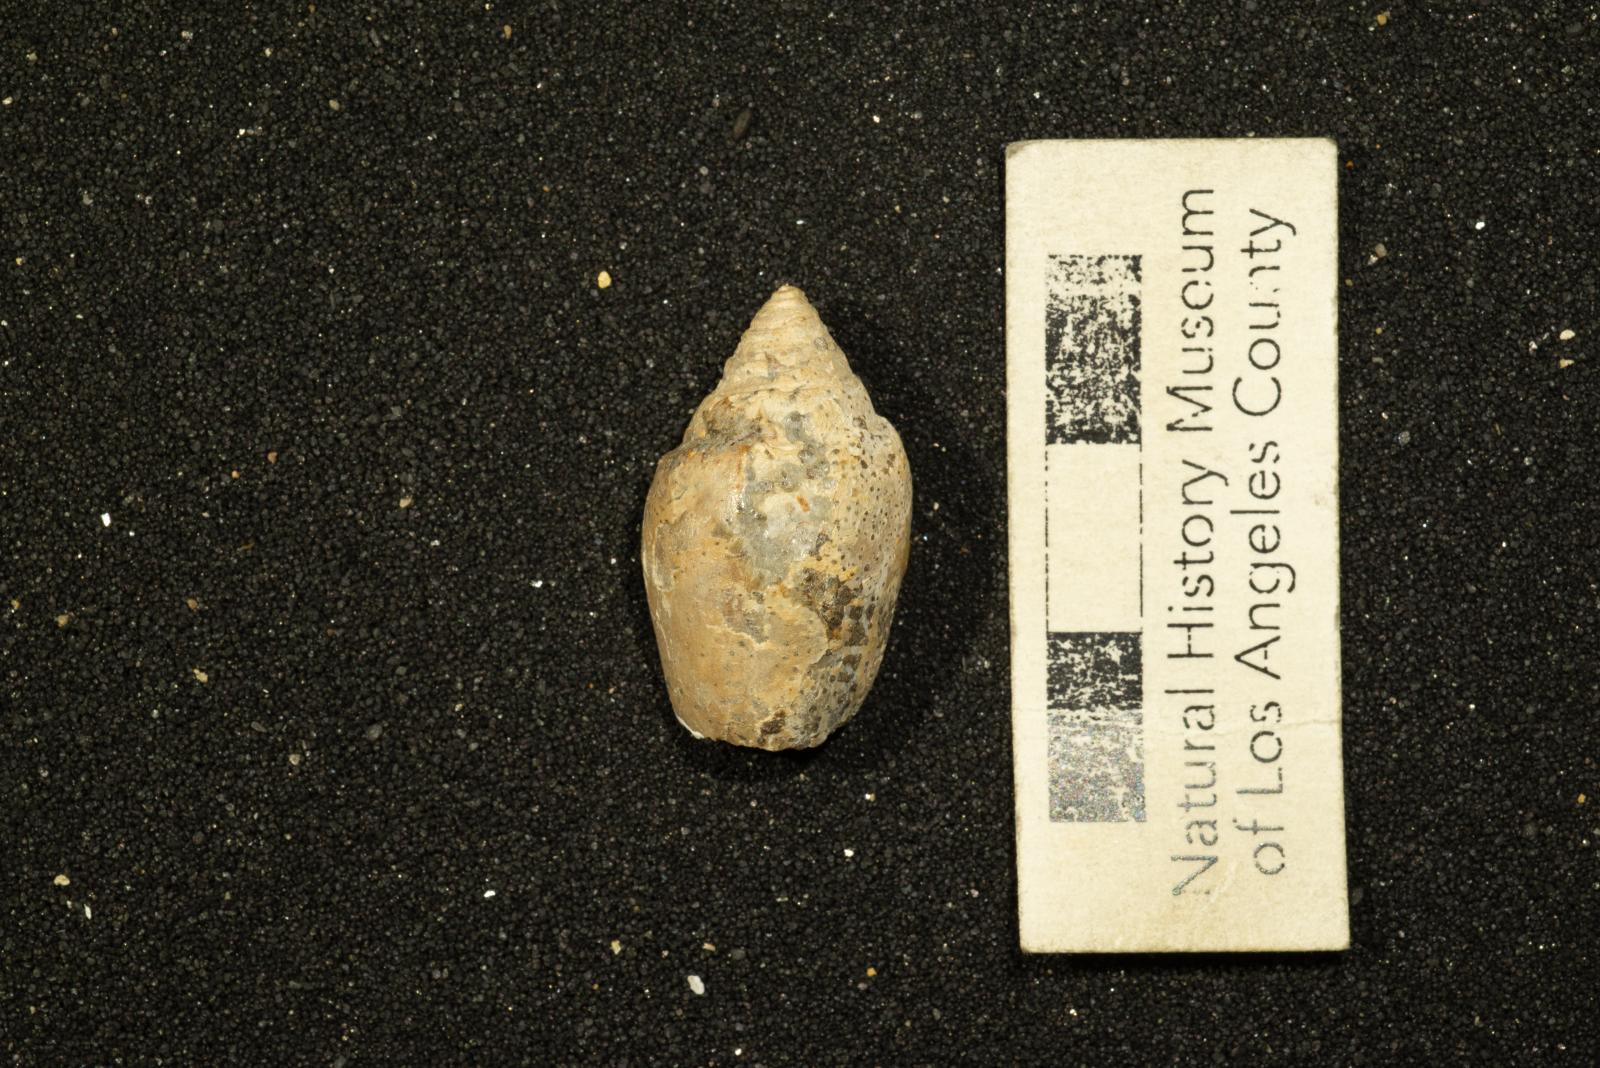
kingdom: Animalia
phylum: Mollusca
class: Gastropoda
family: Acteonellidae
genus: Trochactaeon
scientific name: Trochactaeon frazierensis
